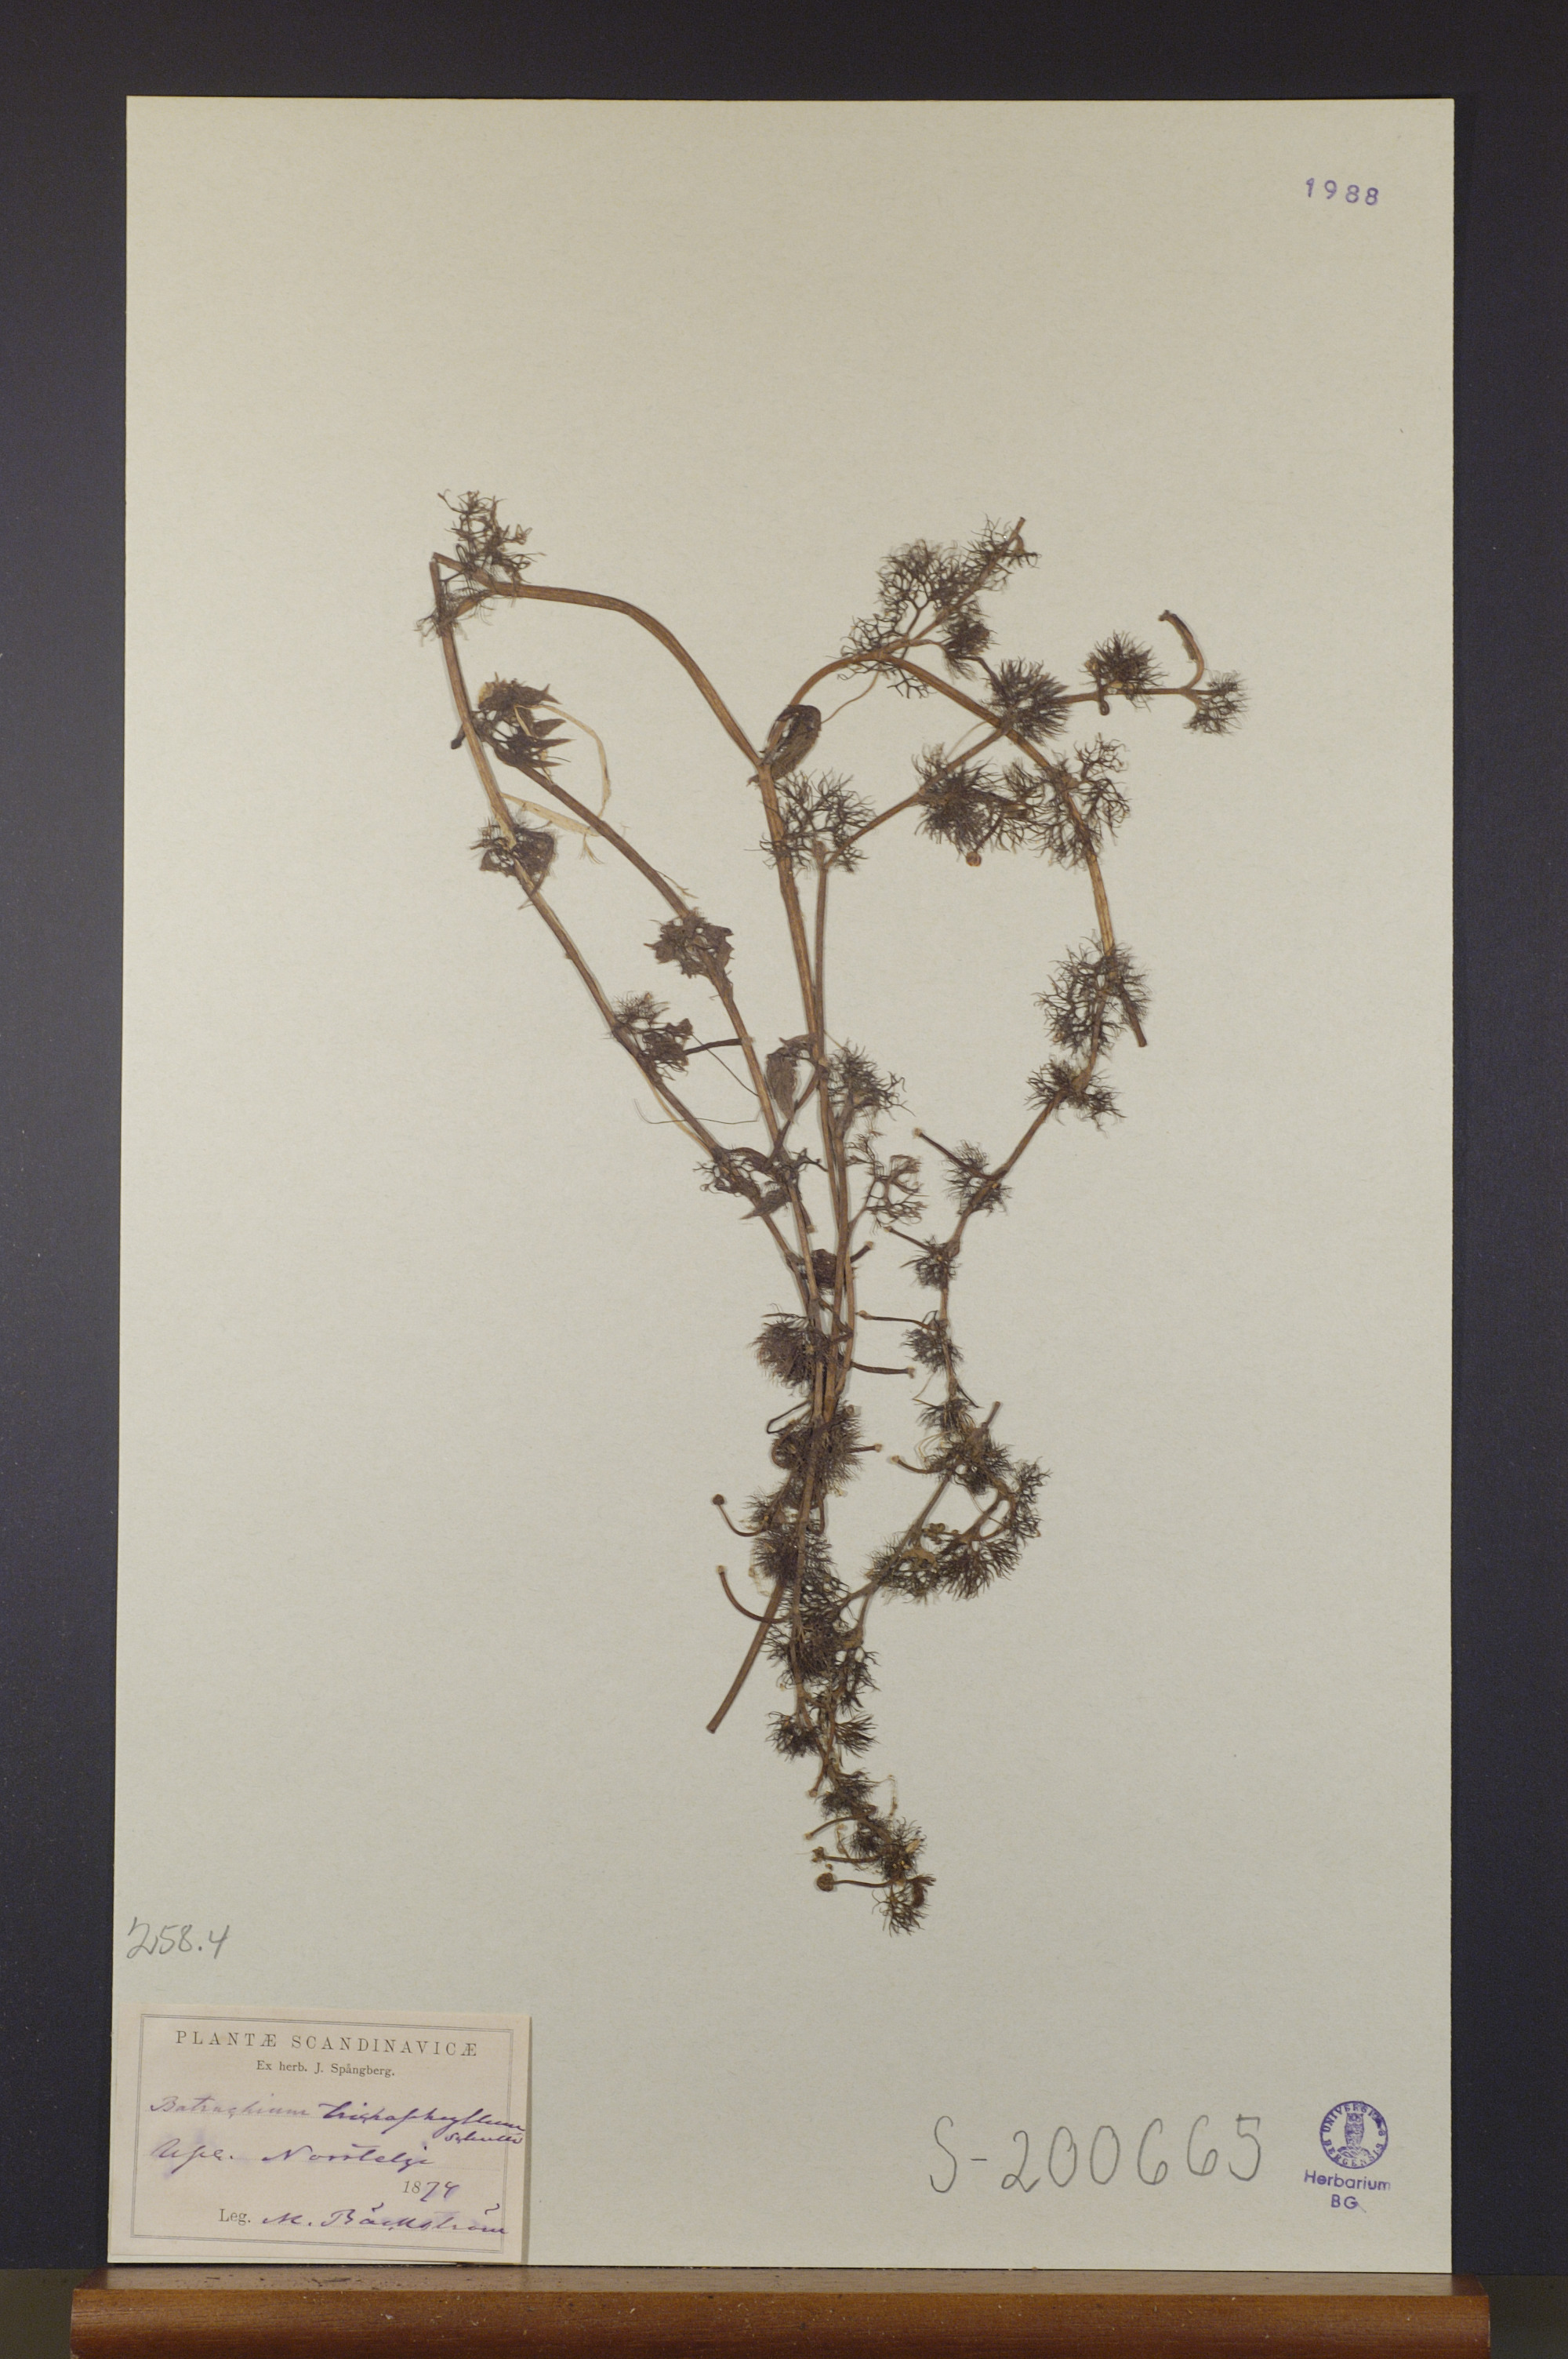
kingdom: Plantae
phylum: Tracheophyta
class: Magnoliopsida
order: Ranunculales
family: Ranunculaceae
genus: Ranunculus
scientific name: Ranunculus trichophyllus
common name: Thread-leaved water-crowfoot
